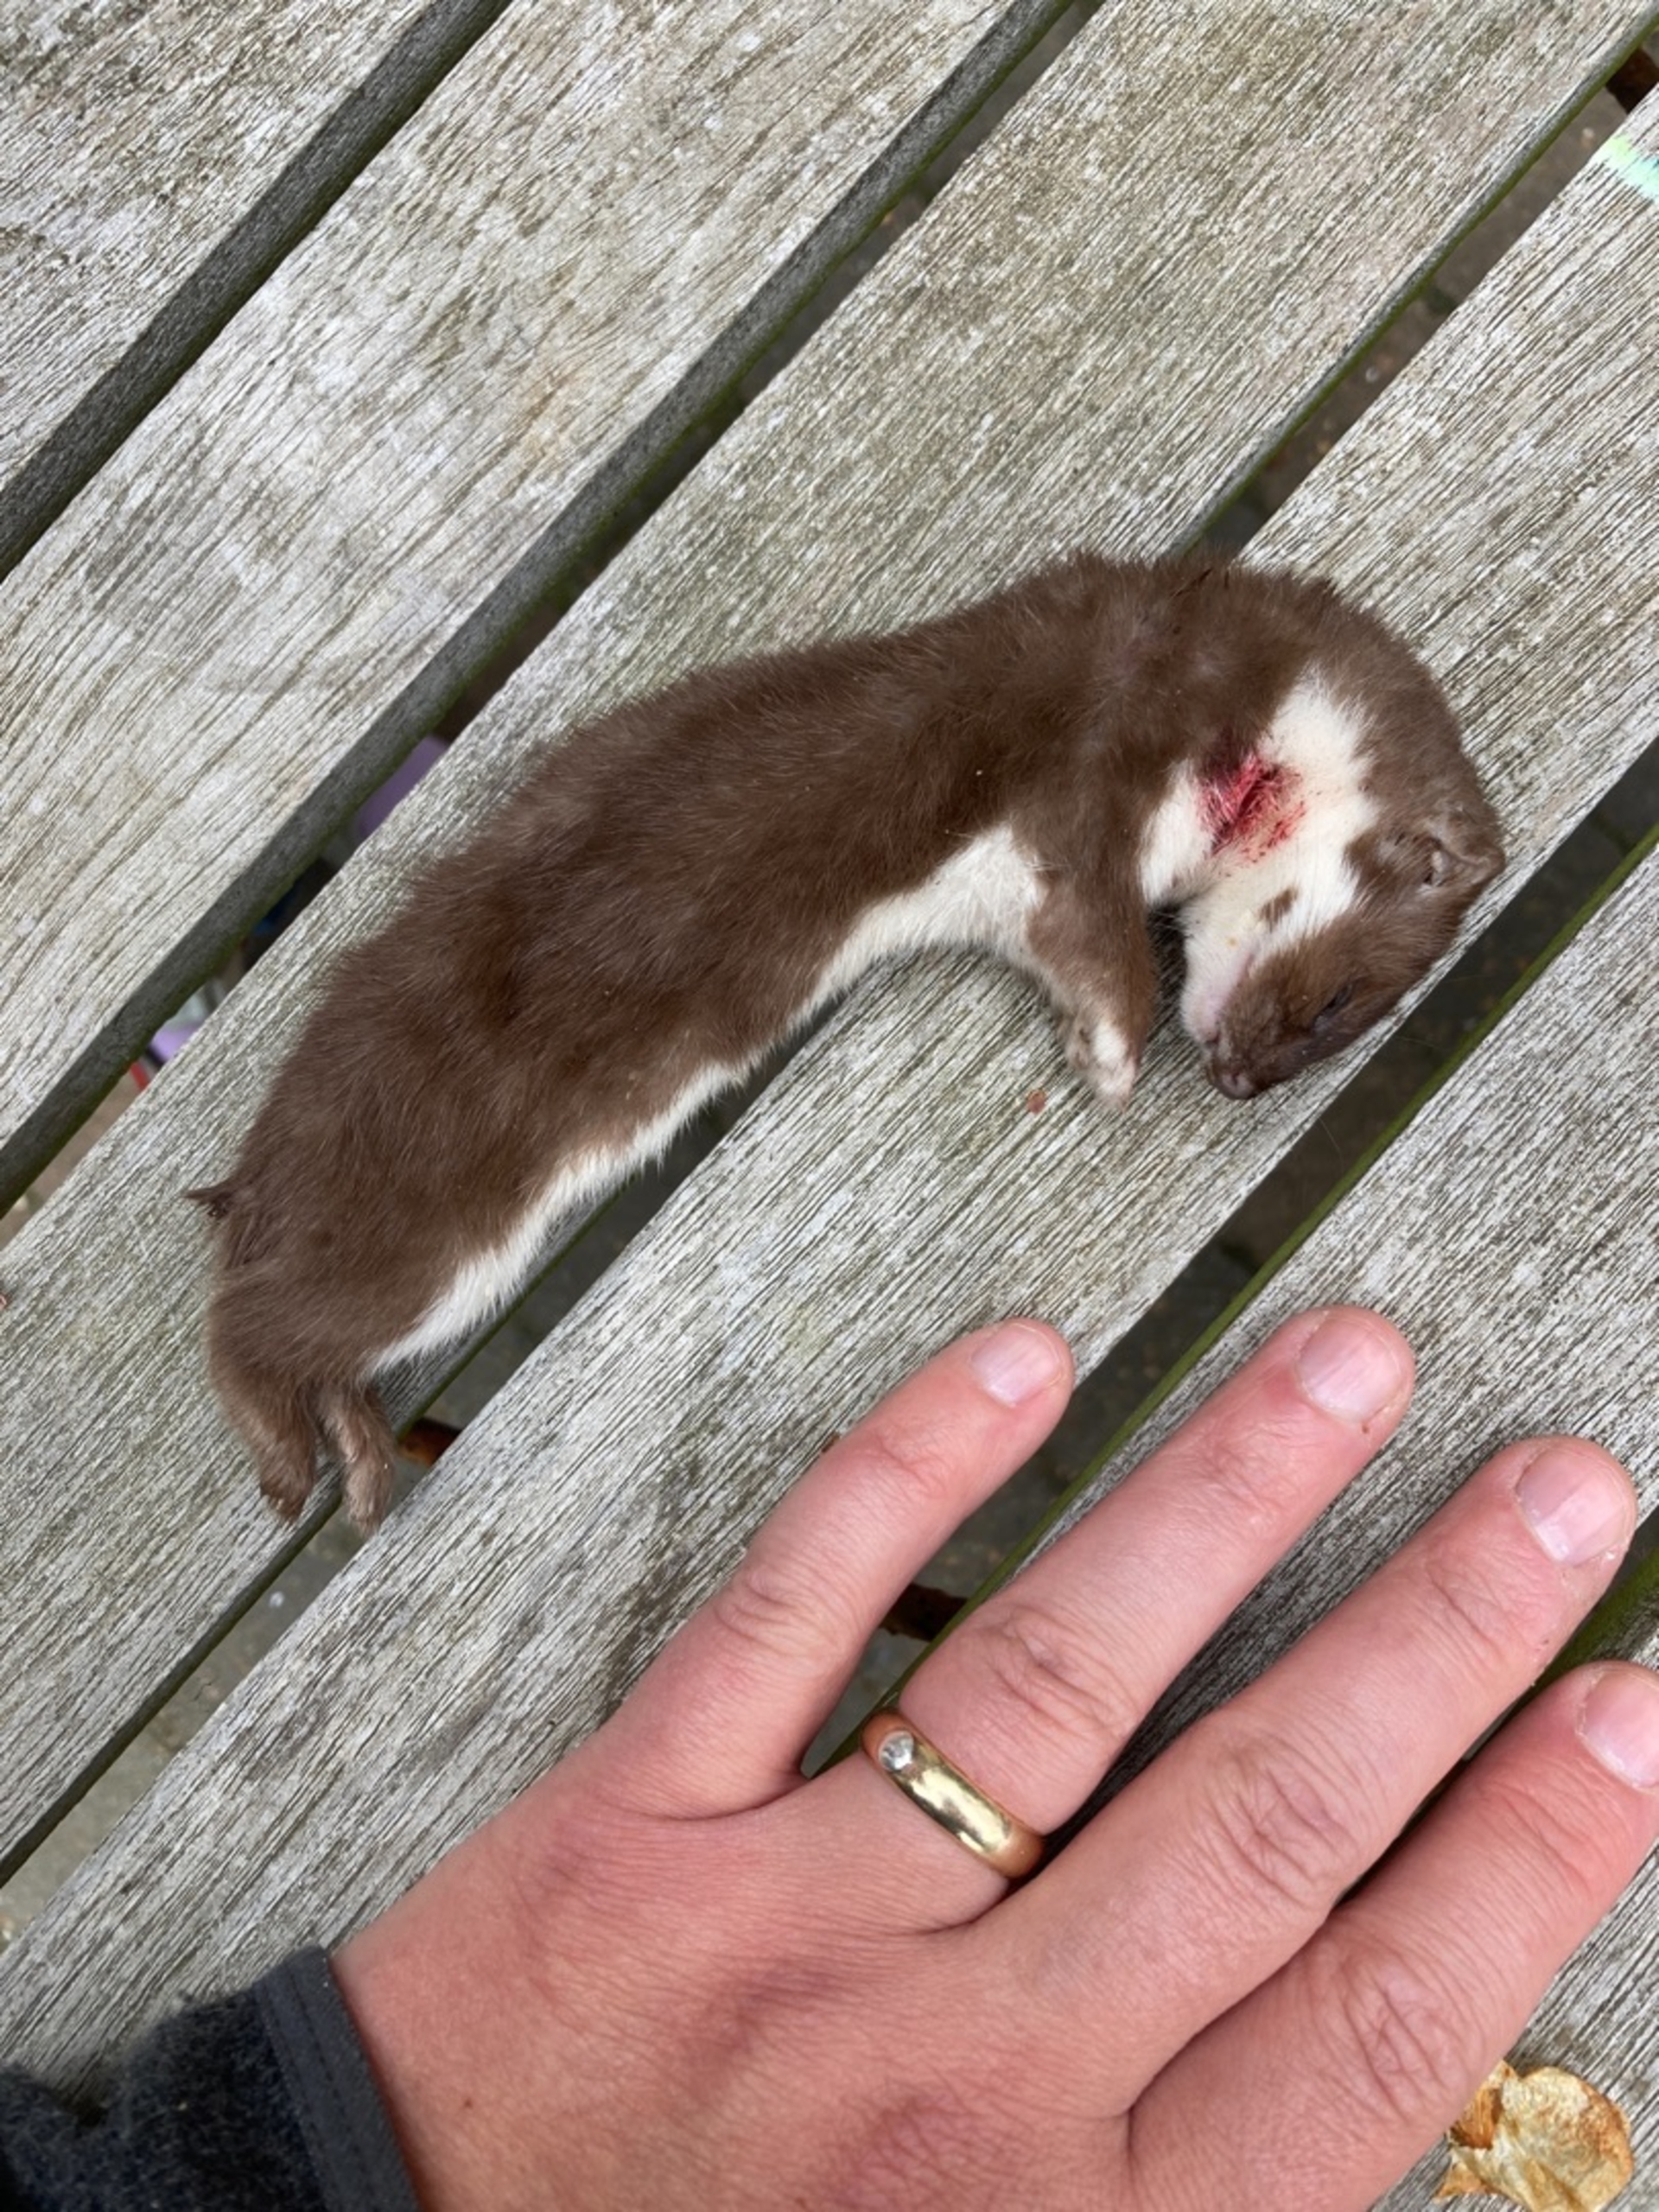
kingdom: Animalia
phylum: Chordata
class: Mammalia
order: Carnivora
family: Mustelidae
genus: Mustela
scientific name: Mustela nivalis
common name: Brud
